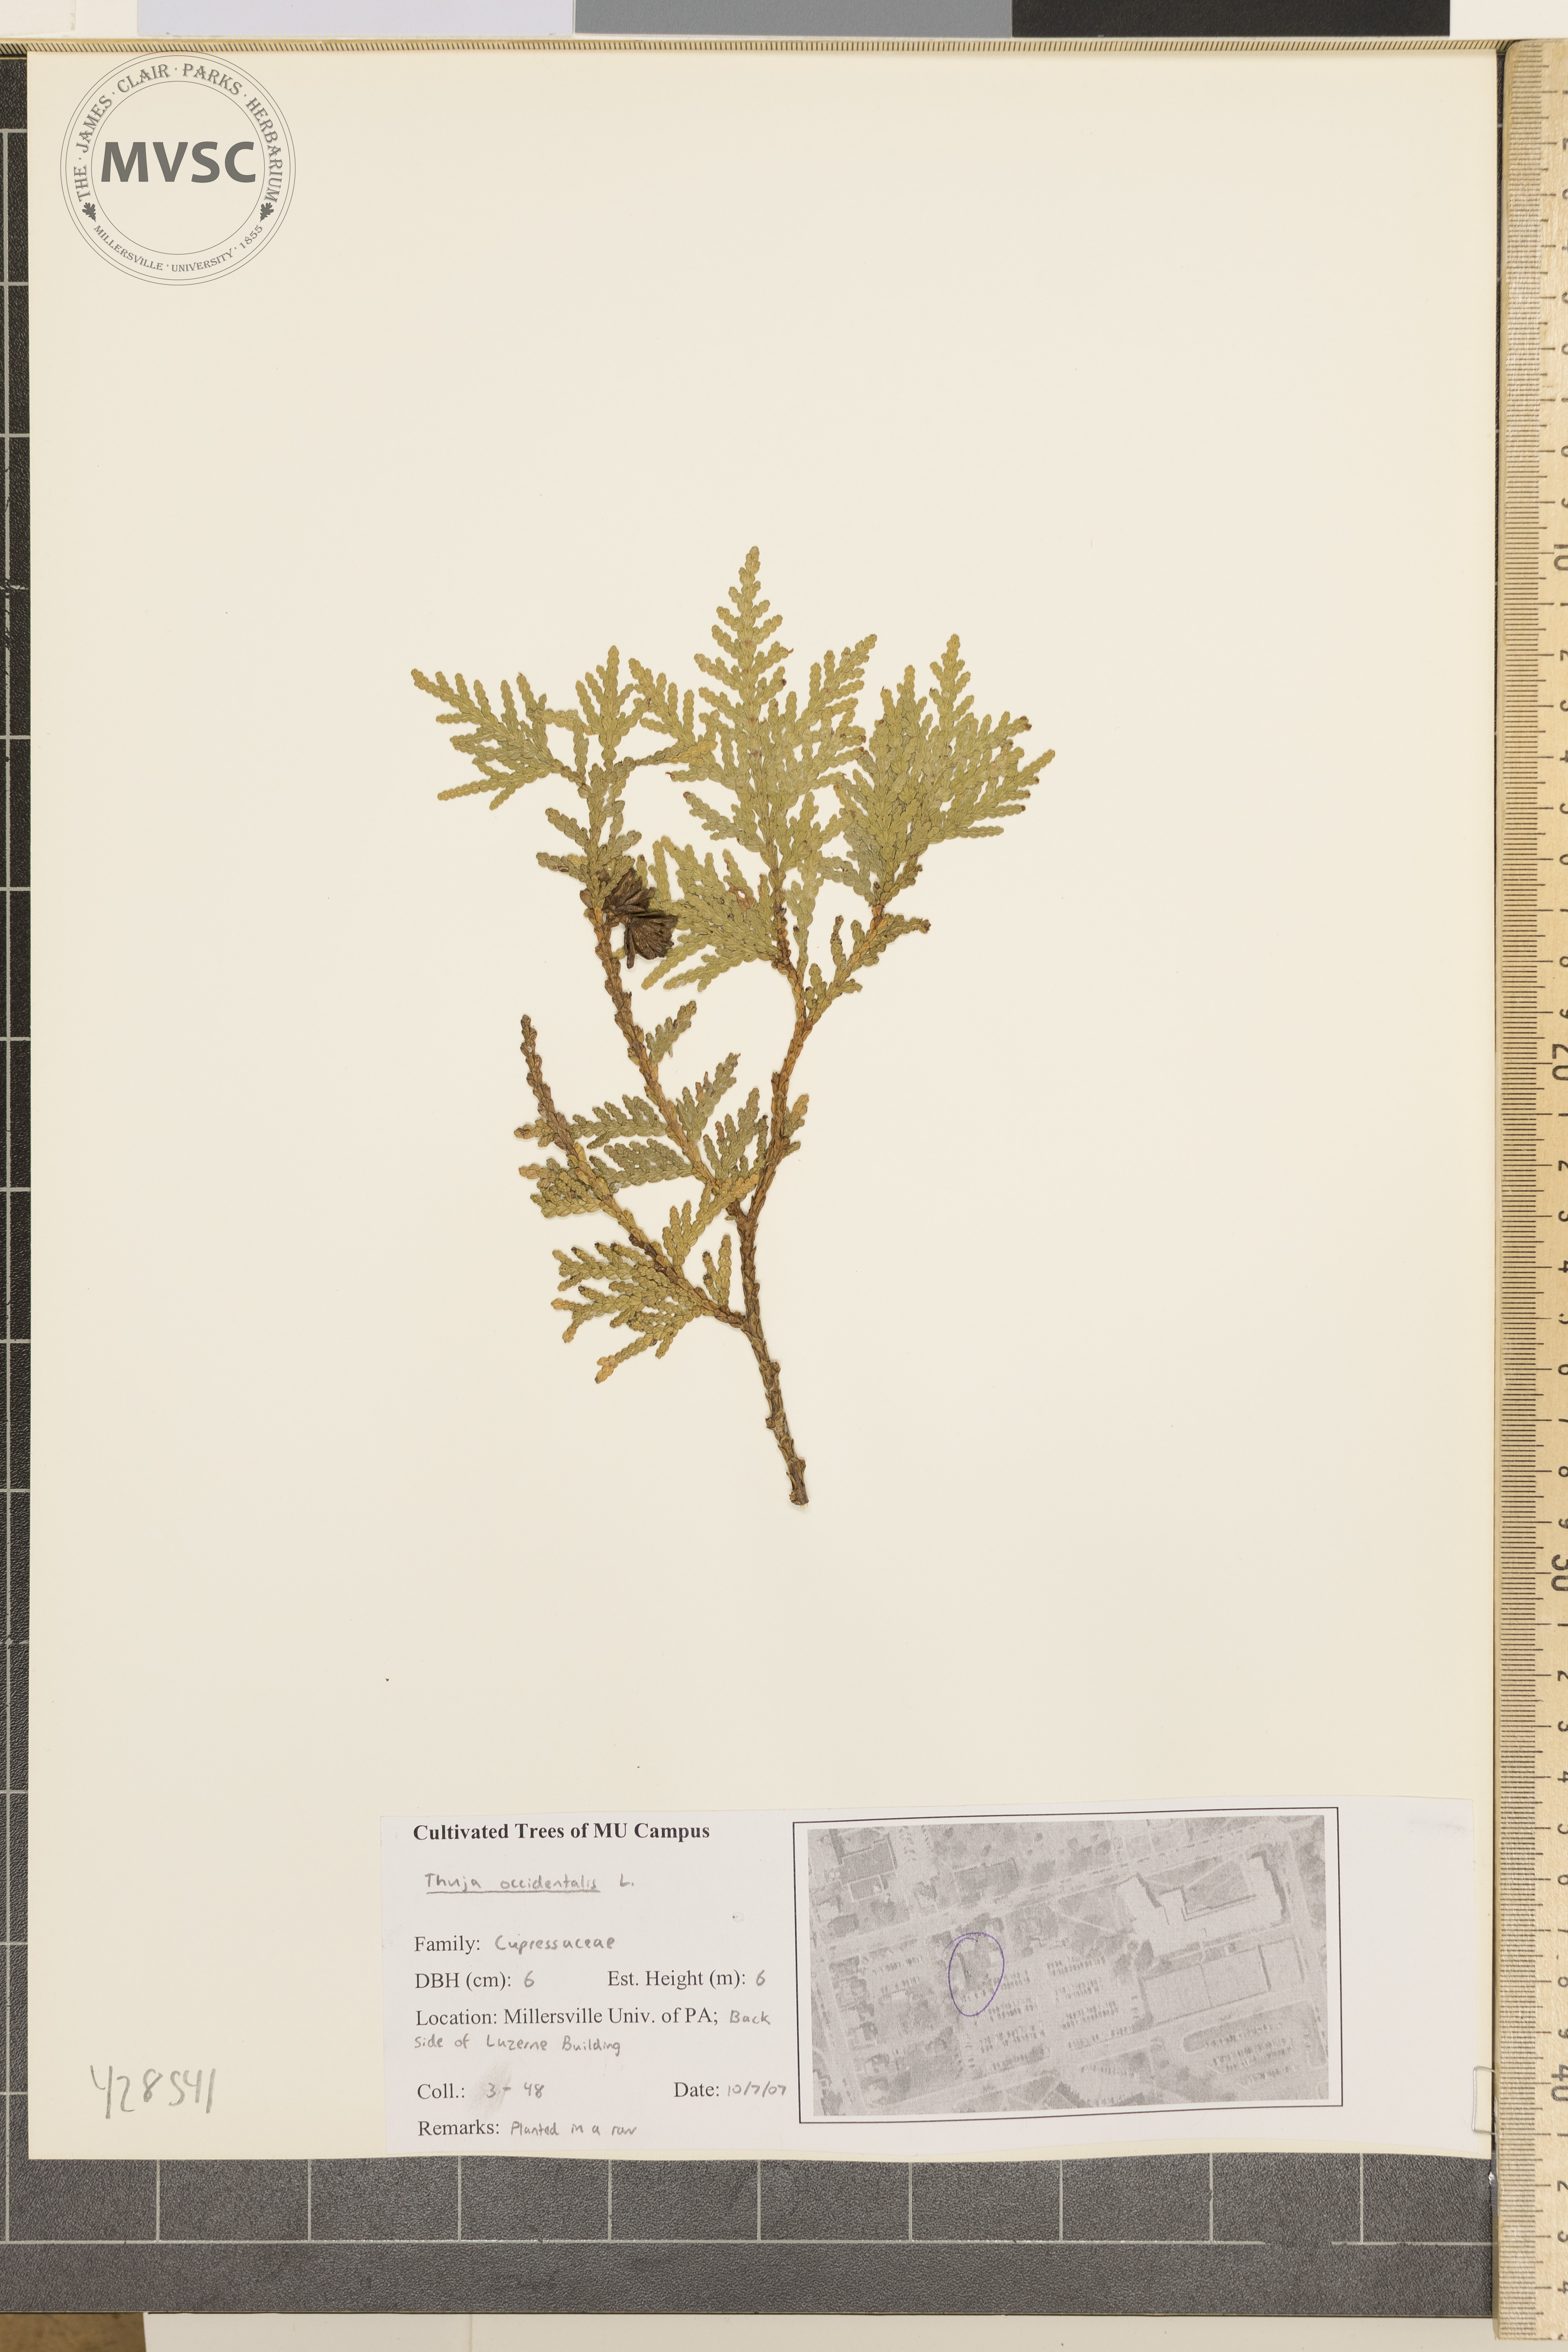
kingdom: Plantae
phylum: Tracheophyta
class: Pinopsida
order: Pinales
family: Cupressaceae
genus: Thuja
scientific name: Thuja occidentalis
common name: Arborvitae
